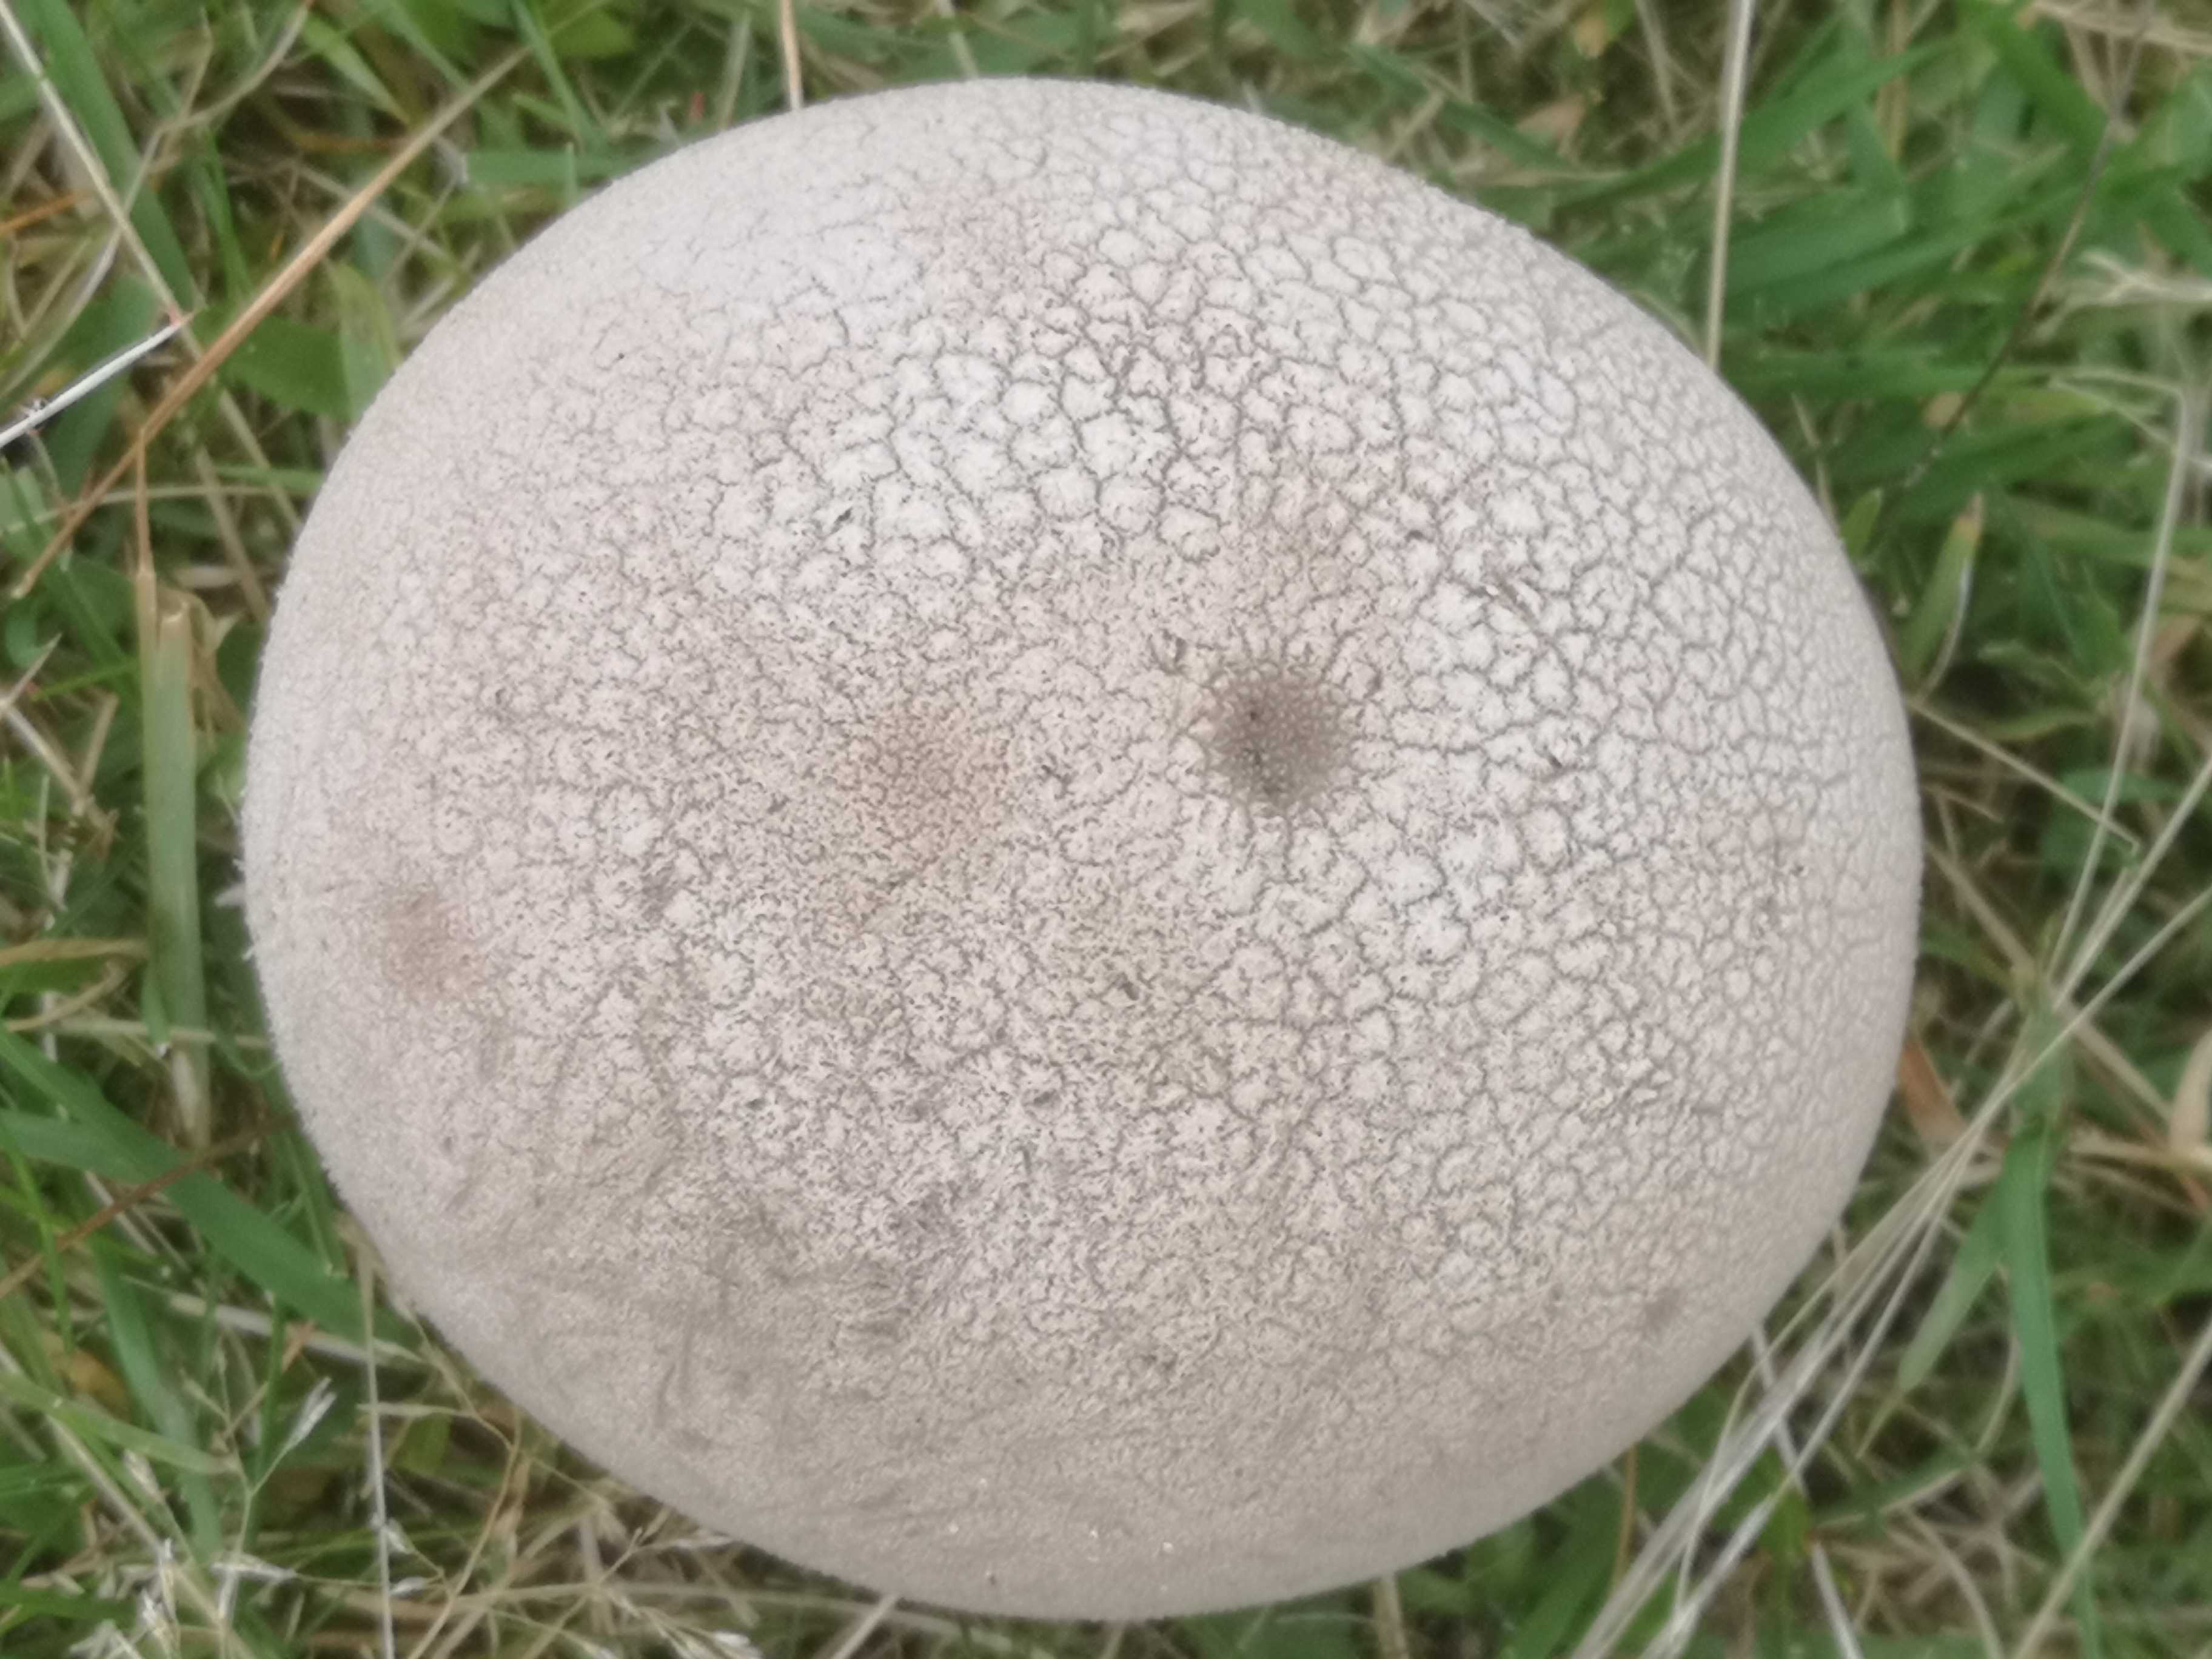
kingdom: Fungi
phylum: Basidiomycota
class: Agaricomycetes
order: Agaricales
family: Lycoperdaceae
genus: Bovistella
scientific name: Bovistella utriformis
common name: skællet støvbold
